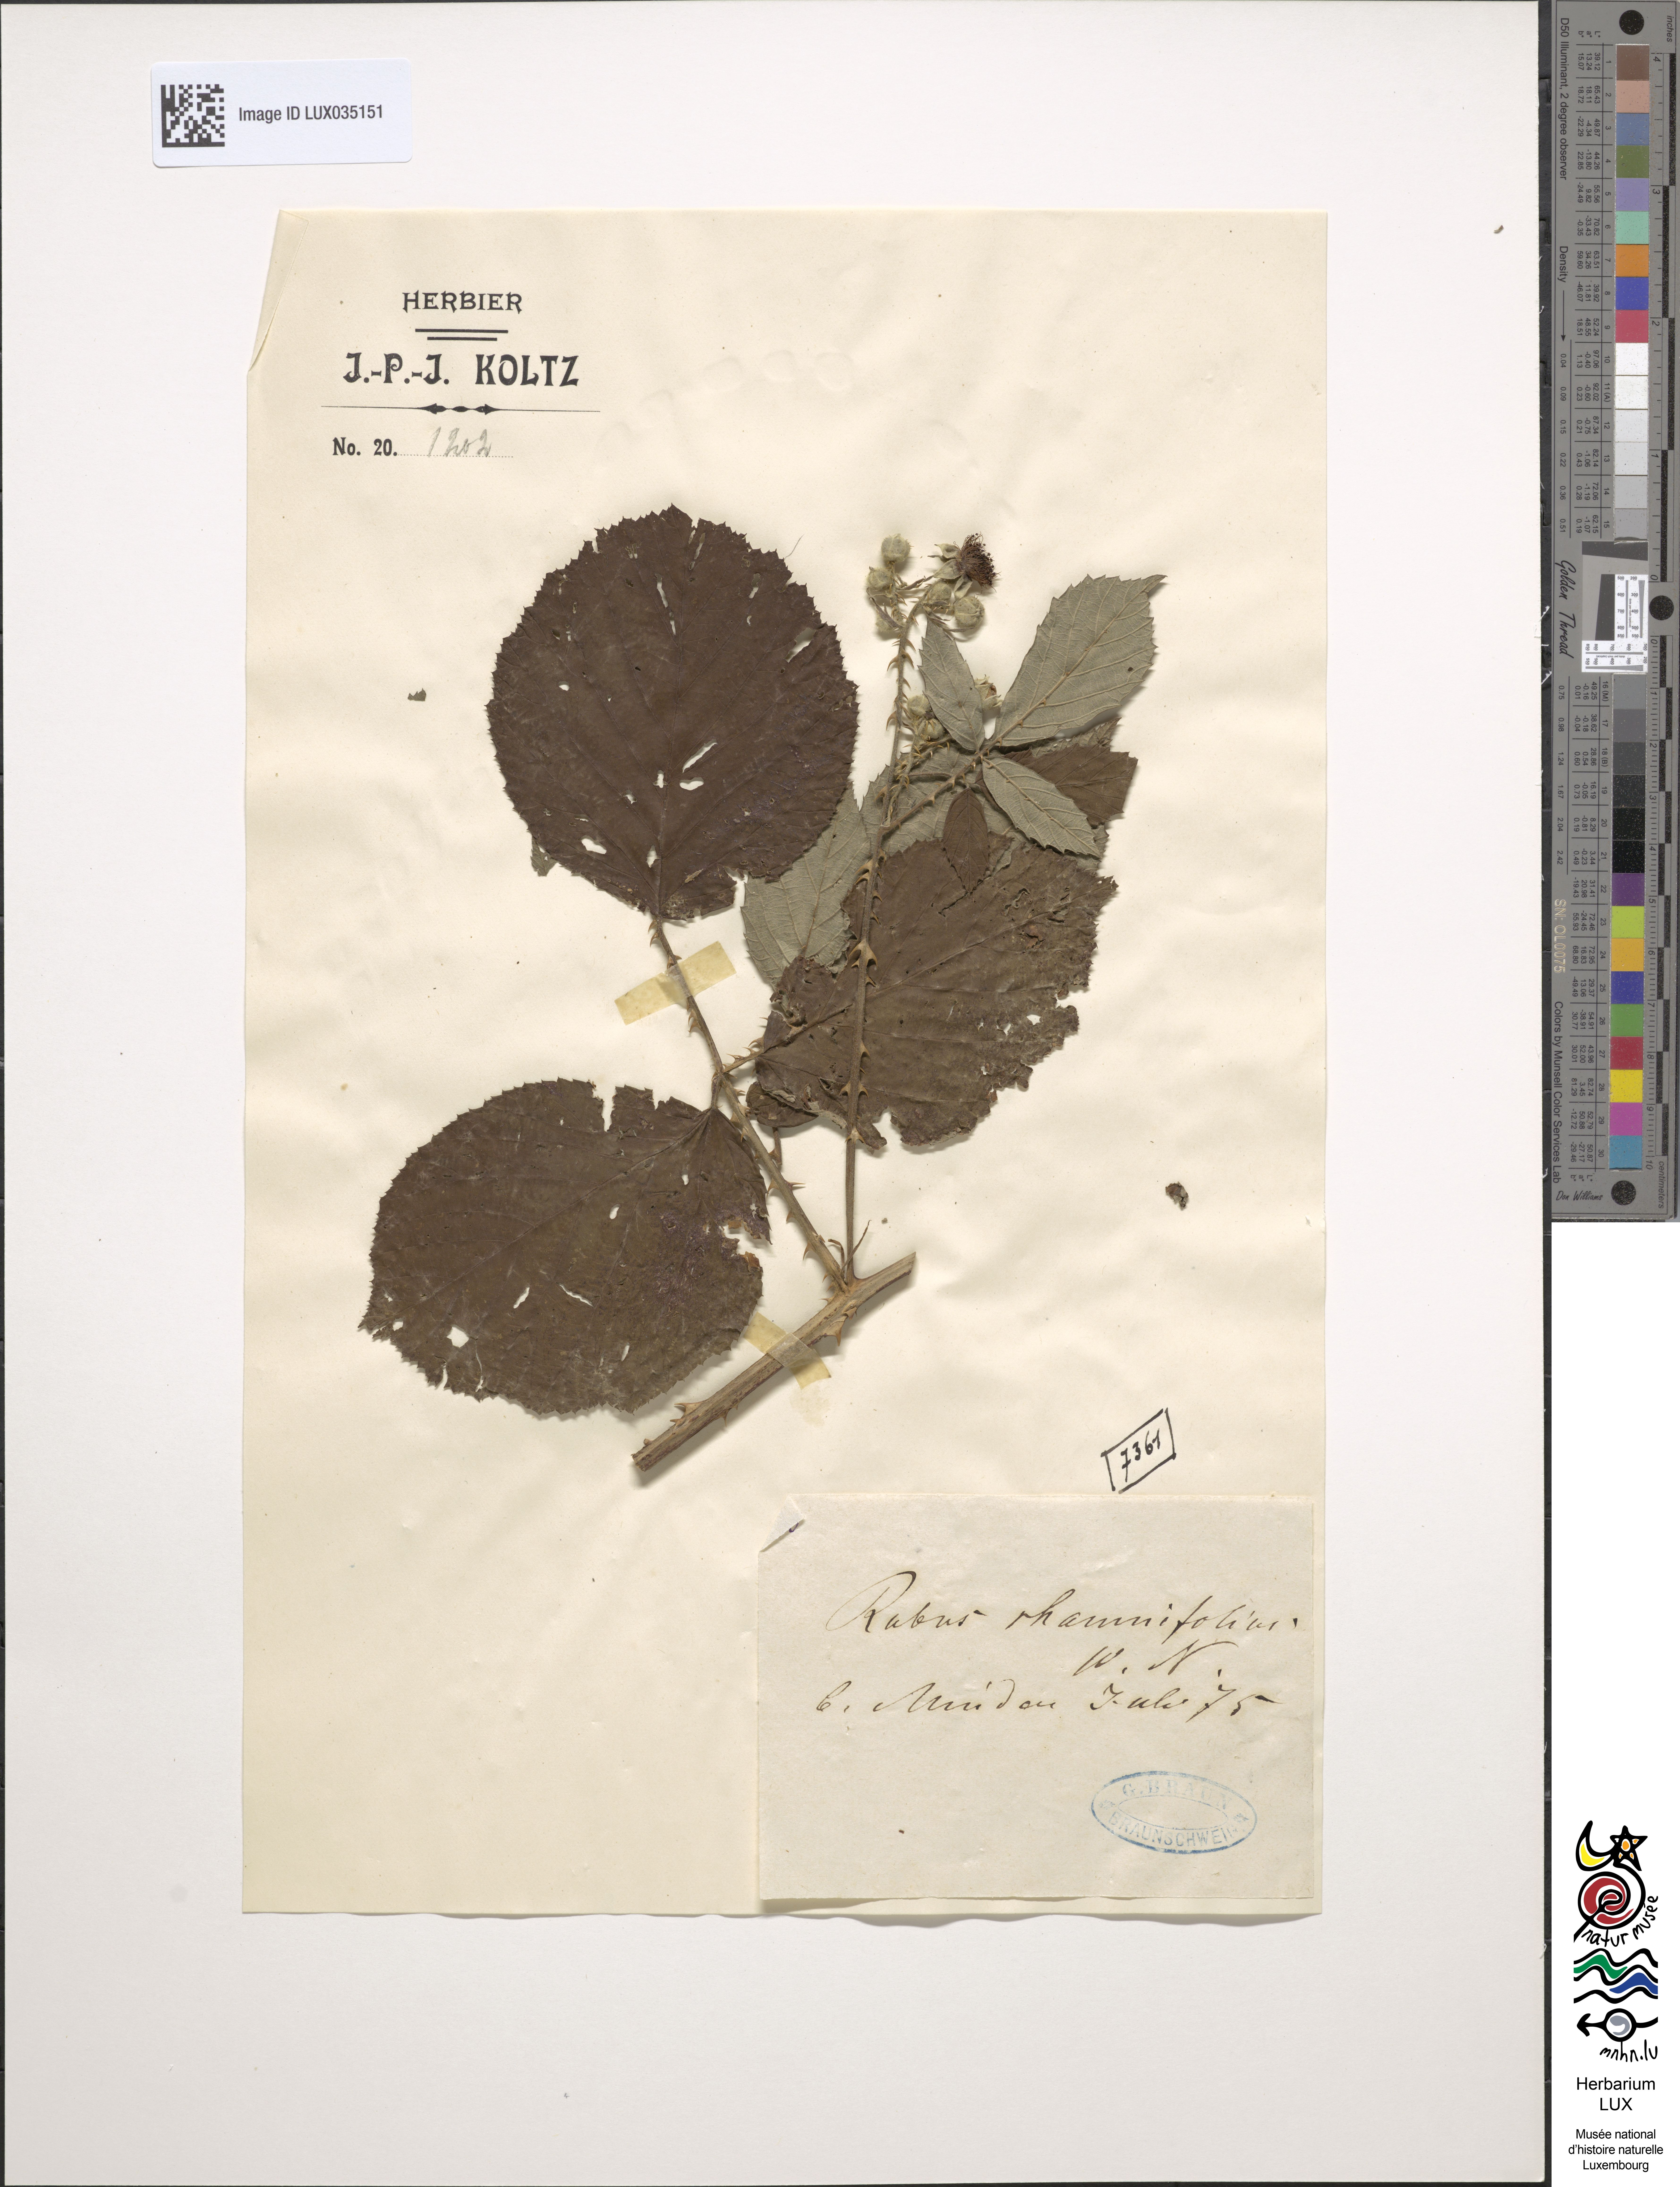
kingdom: Plantae
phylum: Tracheophyta
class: Magnoliopsida
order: Rosales
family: Rosaceae
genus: Rubus
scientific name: Rubus
